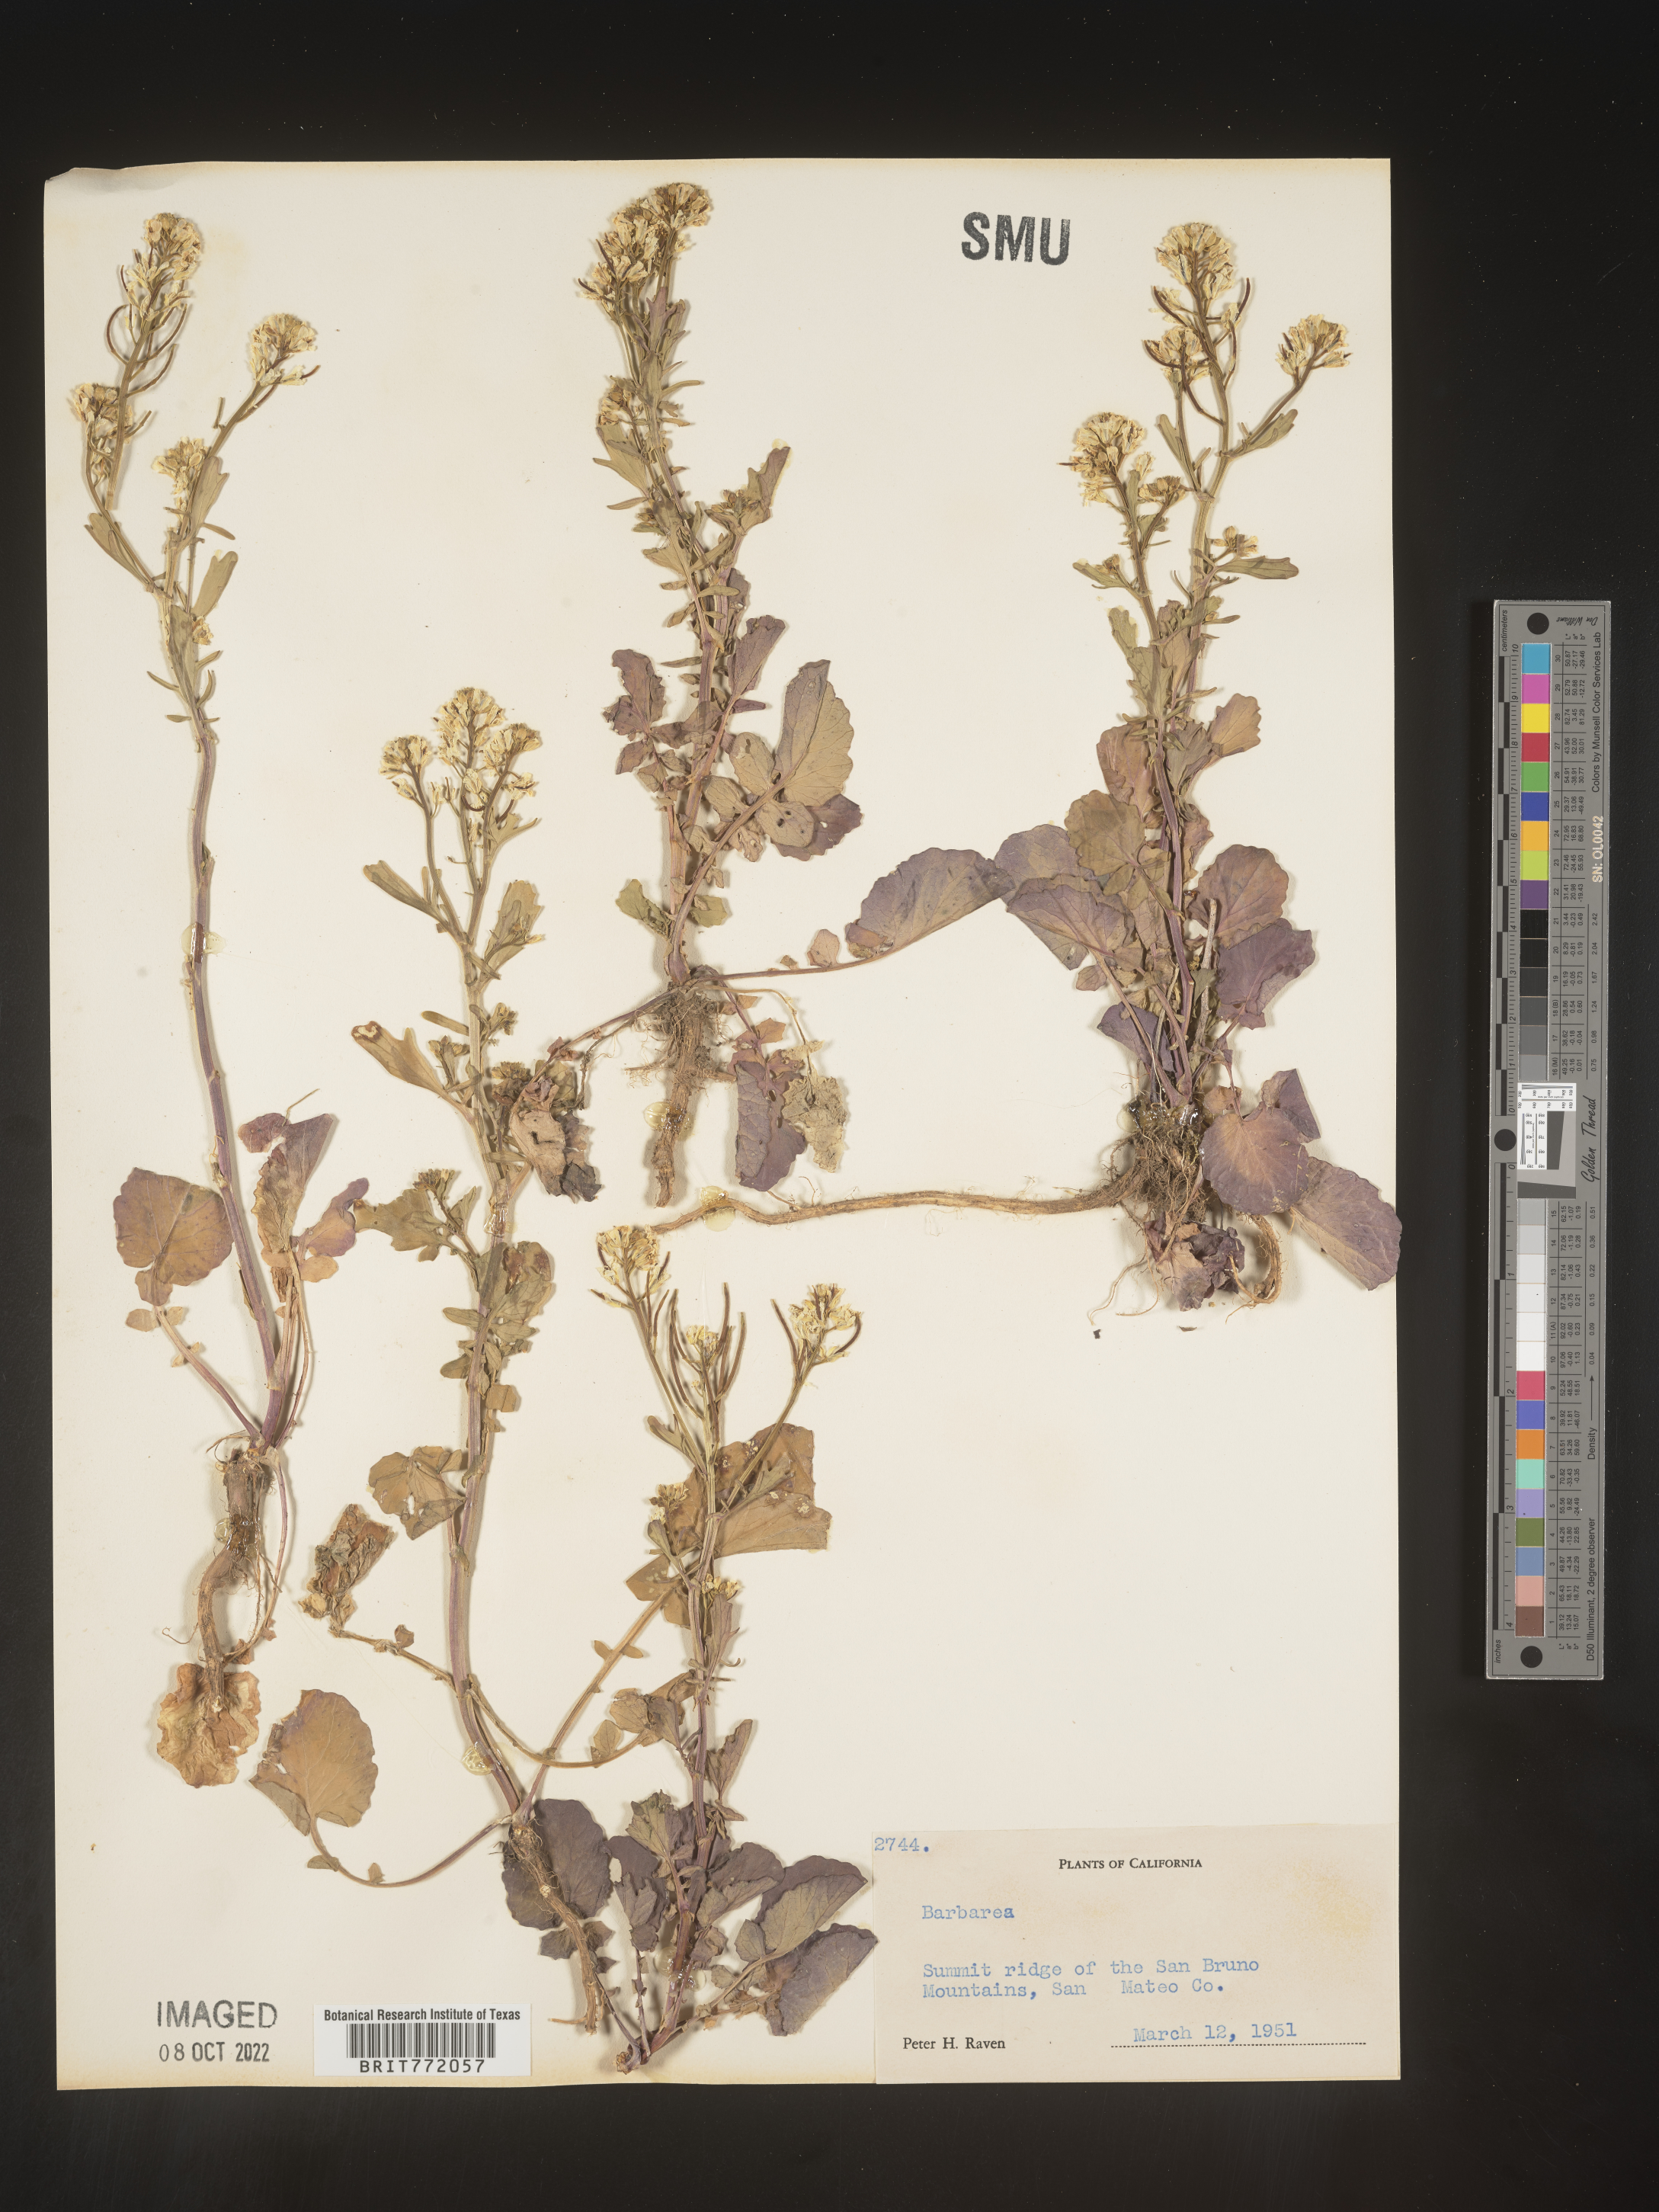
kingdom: Plantae
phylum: Tracheophyta
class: Magnoliopsida
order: Brassicales
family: Brassicaceae
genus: Barbarea
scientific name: Barbarea
